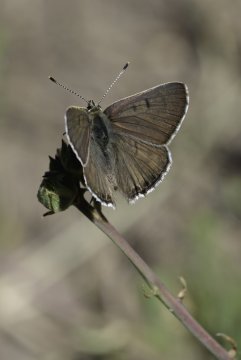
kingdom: Animalia
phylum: Arthropoda
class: Insecta
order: Lepidoptera
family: Lycaenidae
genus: Lycaena
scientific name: Lycaena editha
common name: Edith's Copper
